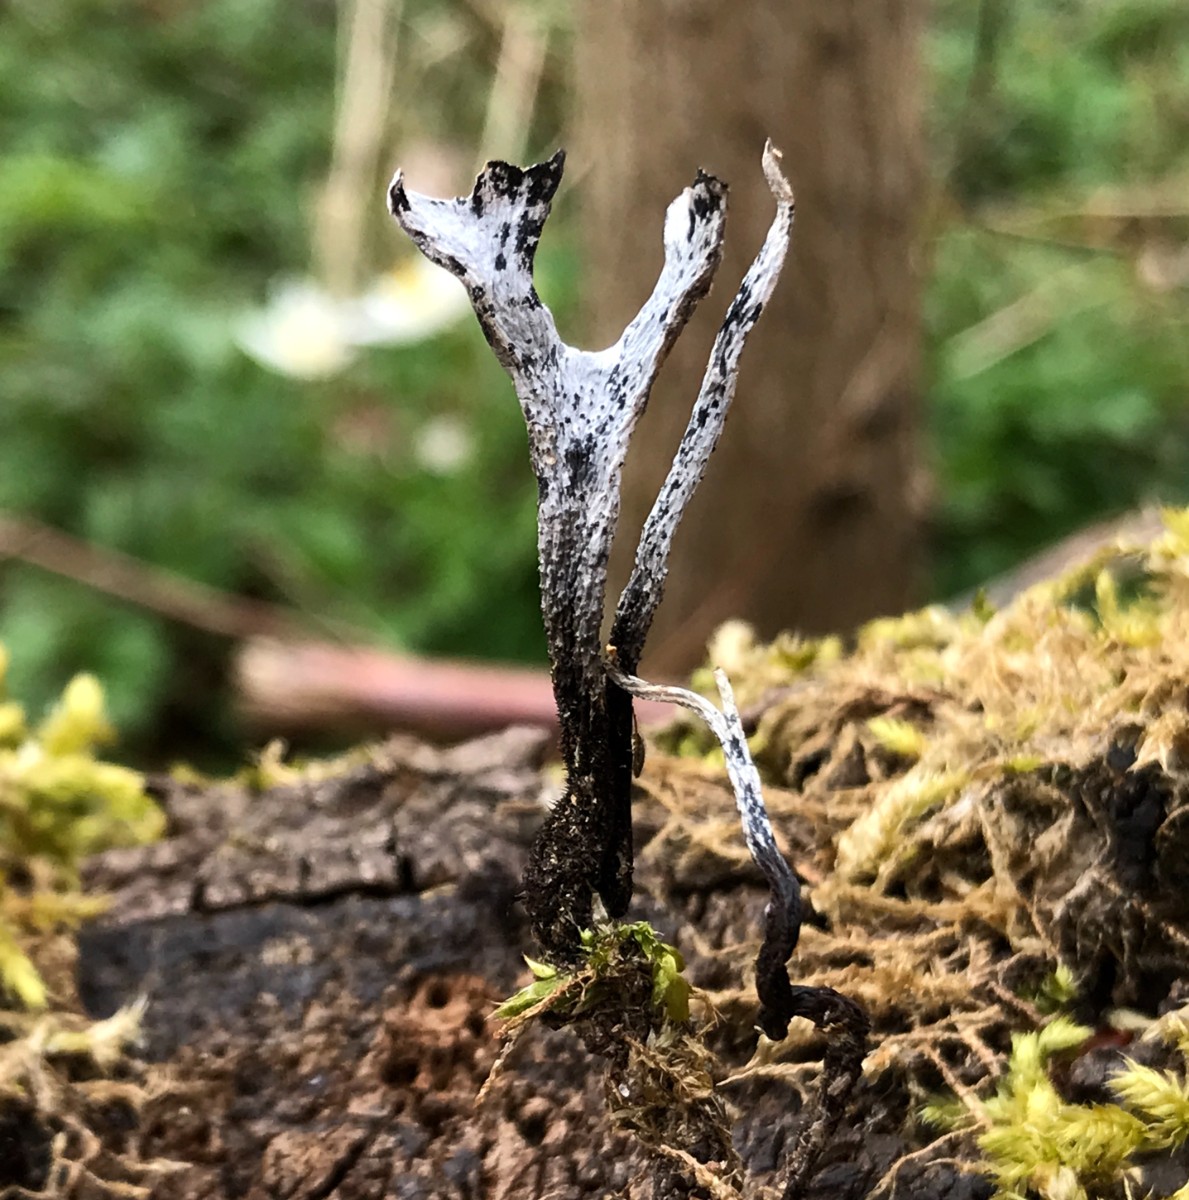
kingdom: Fungi
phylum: Ascomycota
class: Sordariomycetes
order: Xylariales
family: Xylariaceae
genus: Xylaria
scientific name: Xylaria hypoxylon
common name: grenet stødsvamp
